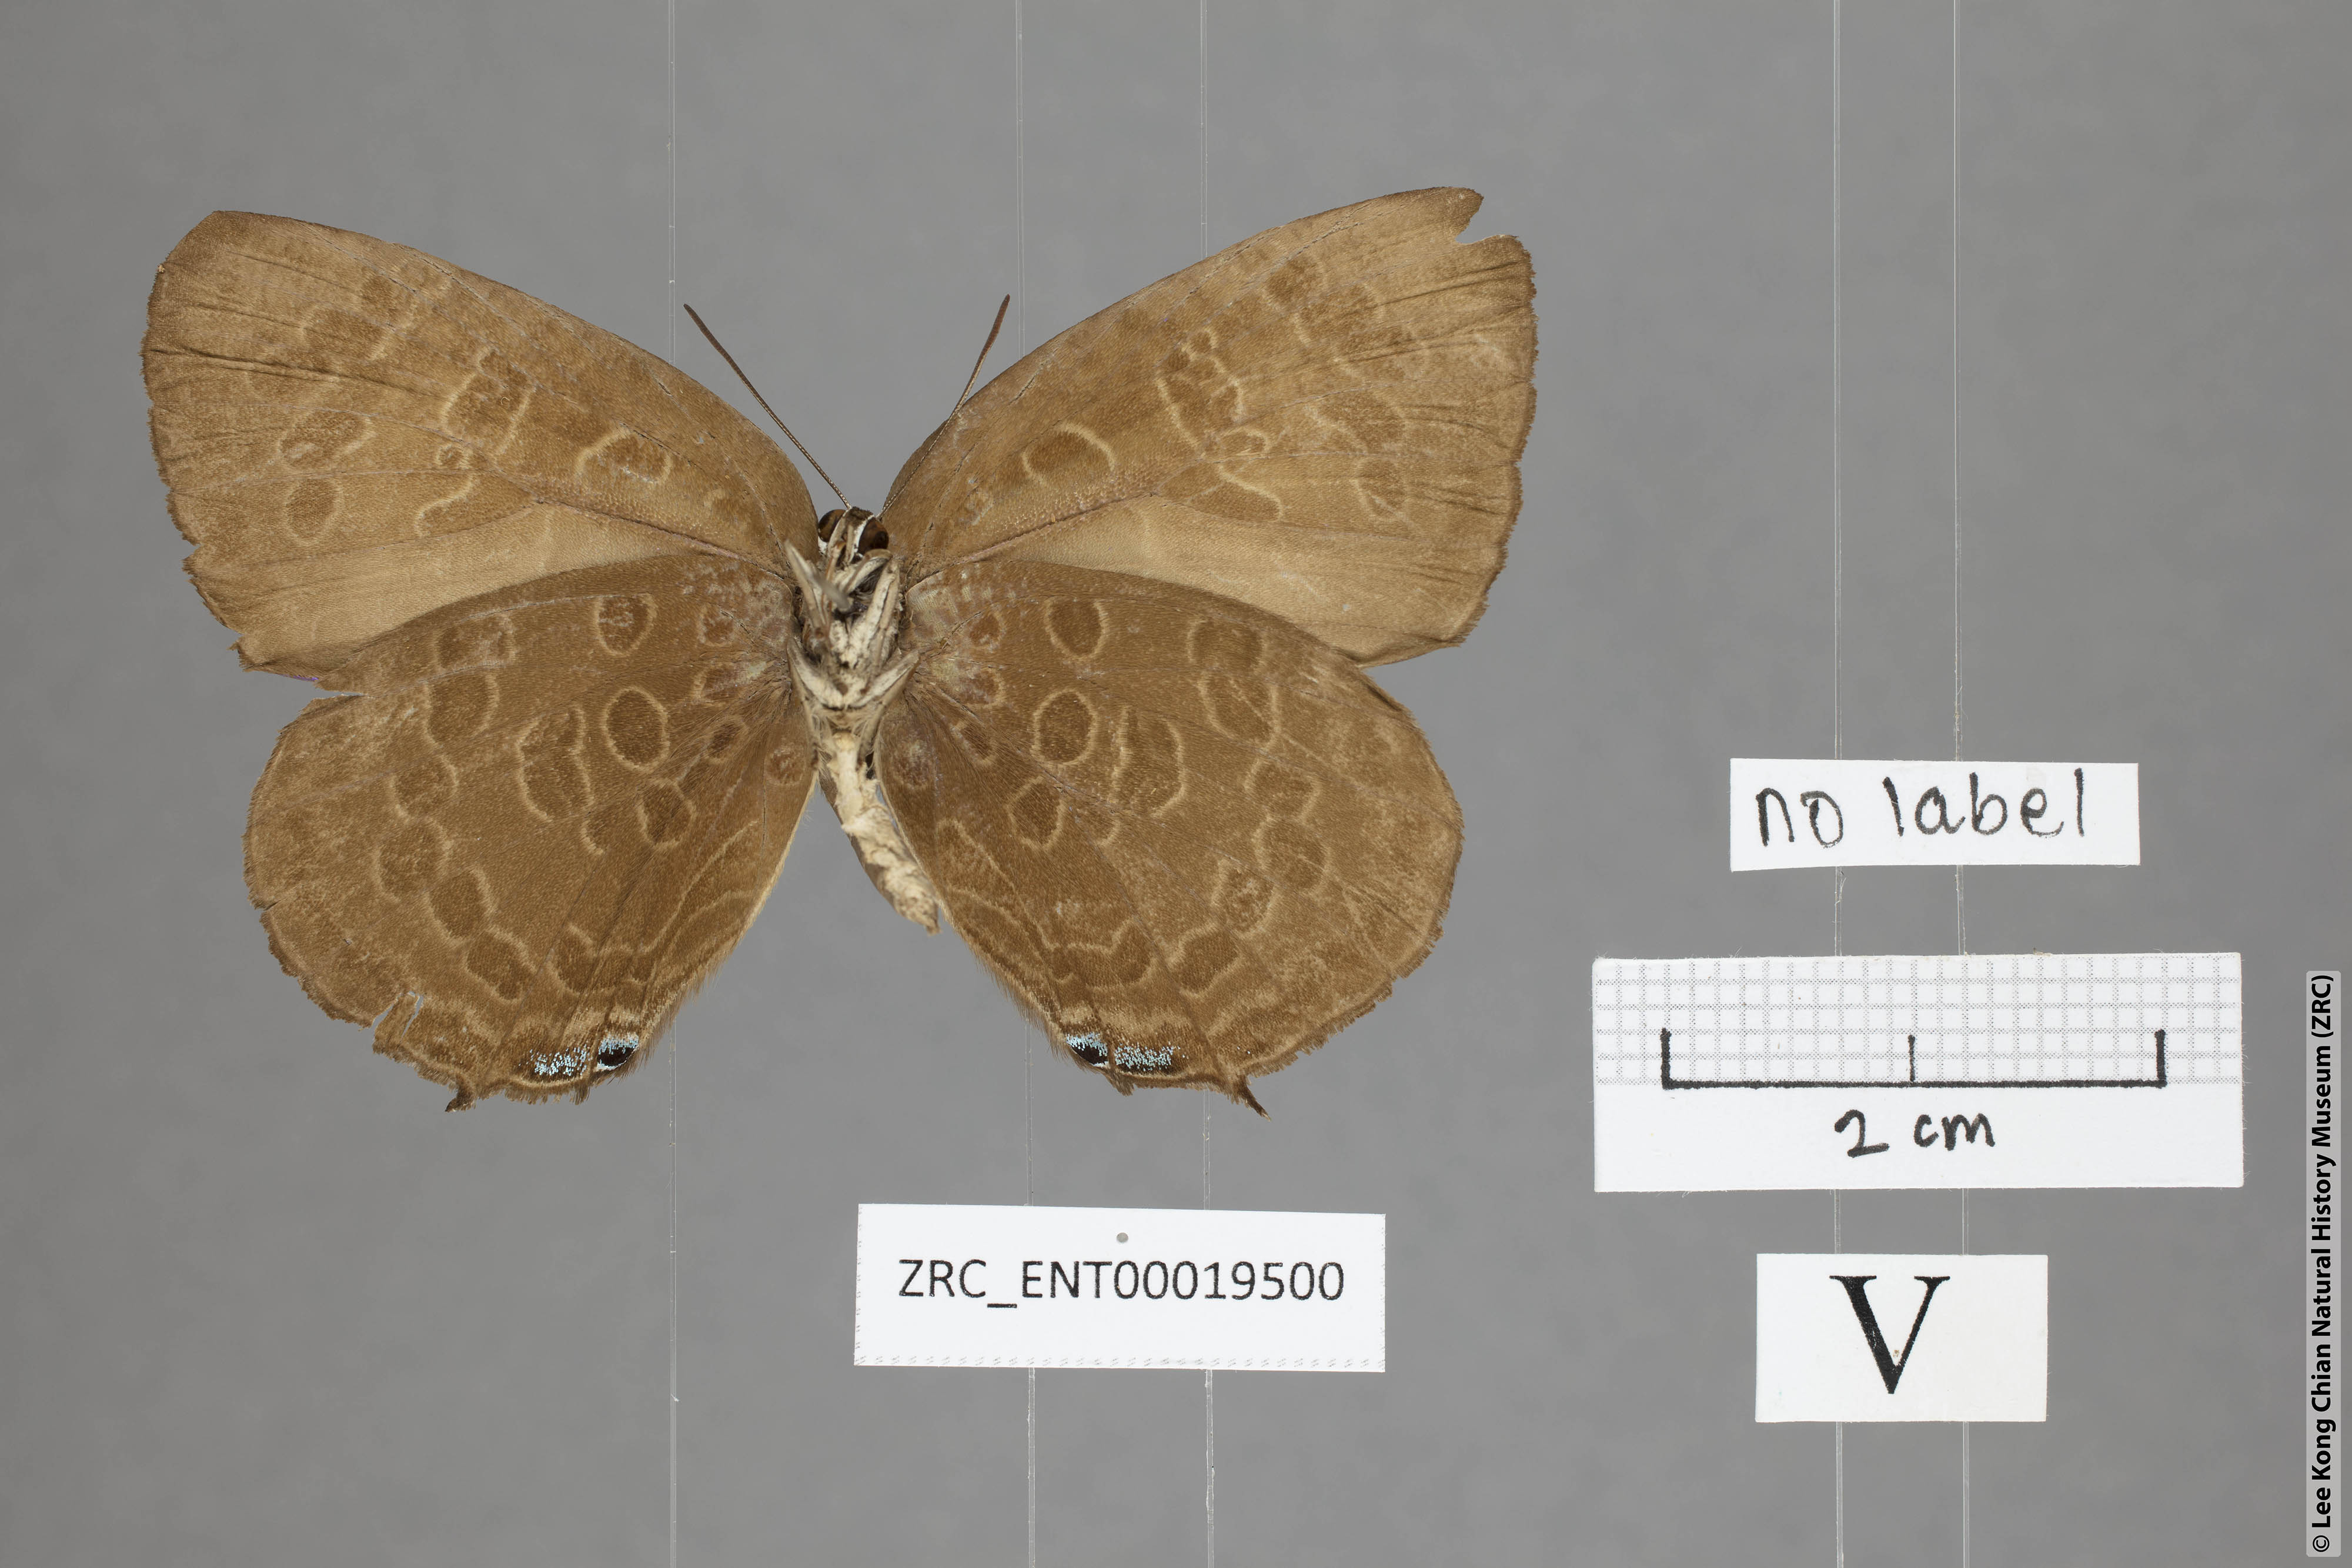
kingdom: Animalia
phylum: Arthropoda
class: Insecta
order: Lepidoptera
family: Lycaenidae
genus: Arhopala
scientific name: Arhopala hellada
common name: Long-banded oakblue
